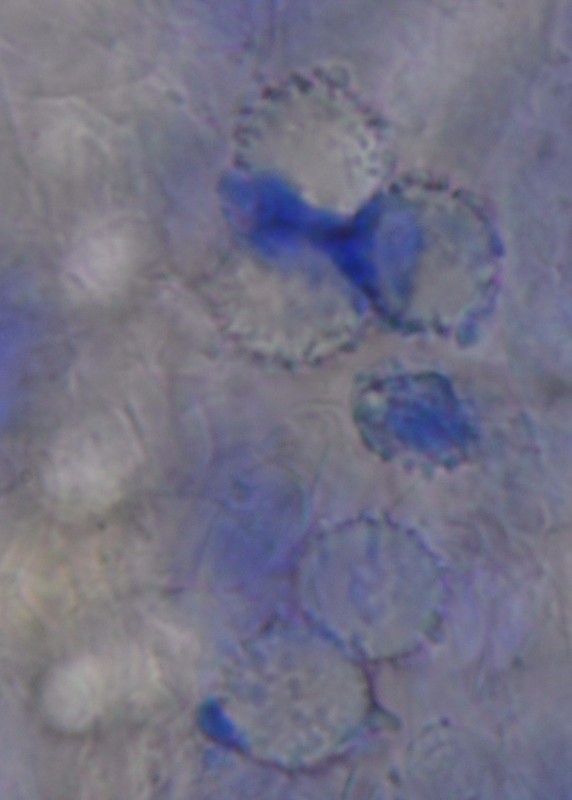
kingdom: Fungi
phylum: Basidiomycota
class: Agaricomycetes
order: Russulales
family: Russulaceae
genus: Russula
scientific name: Russula
